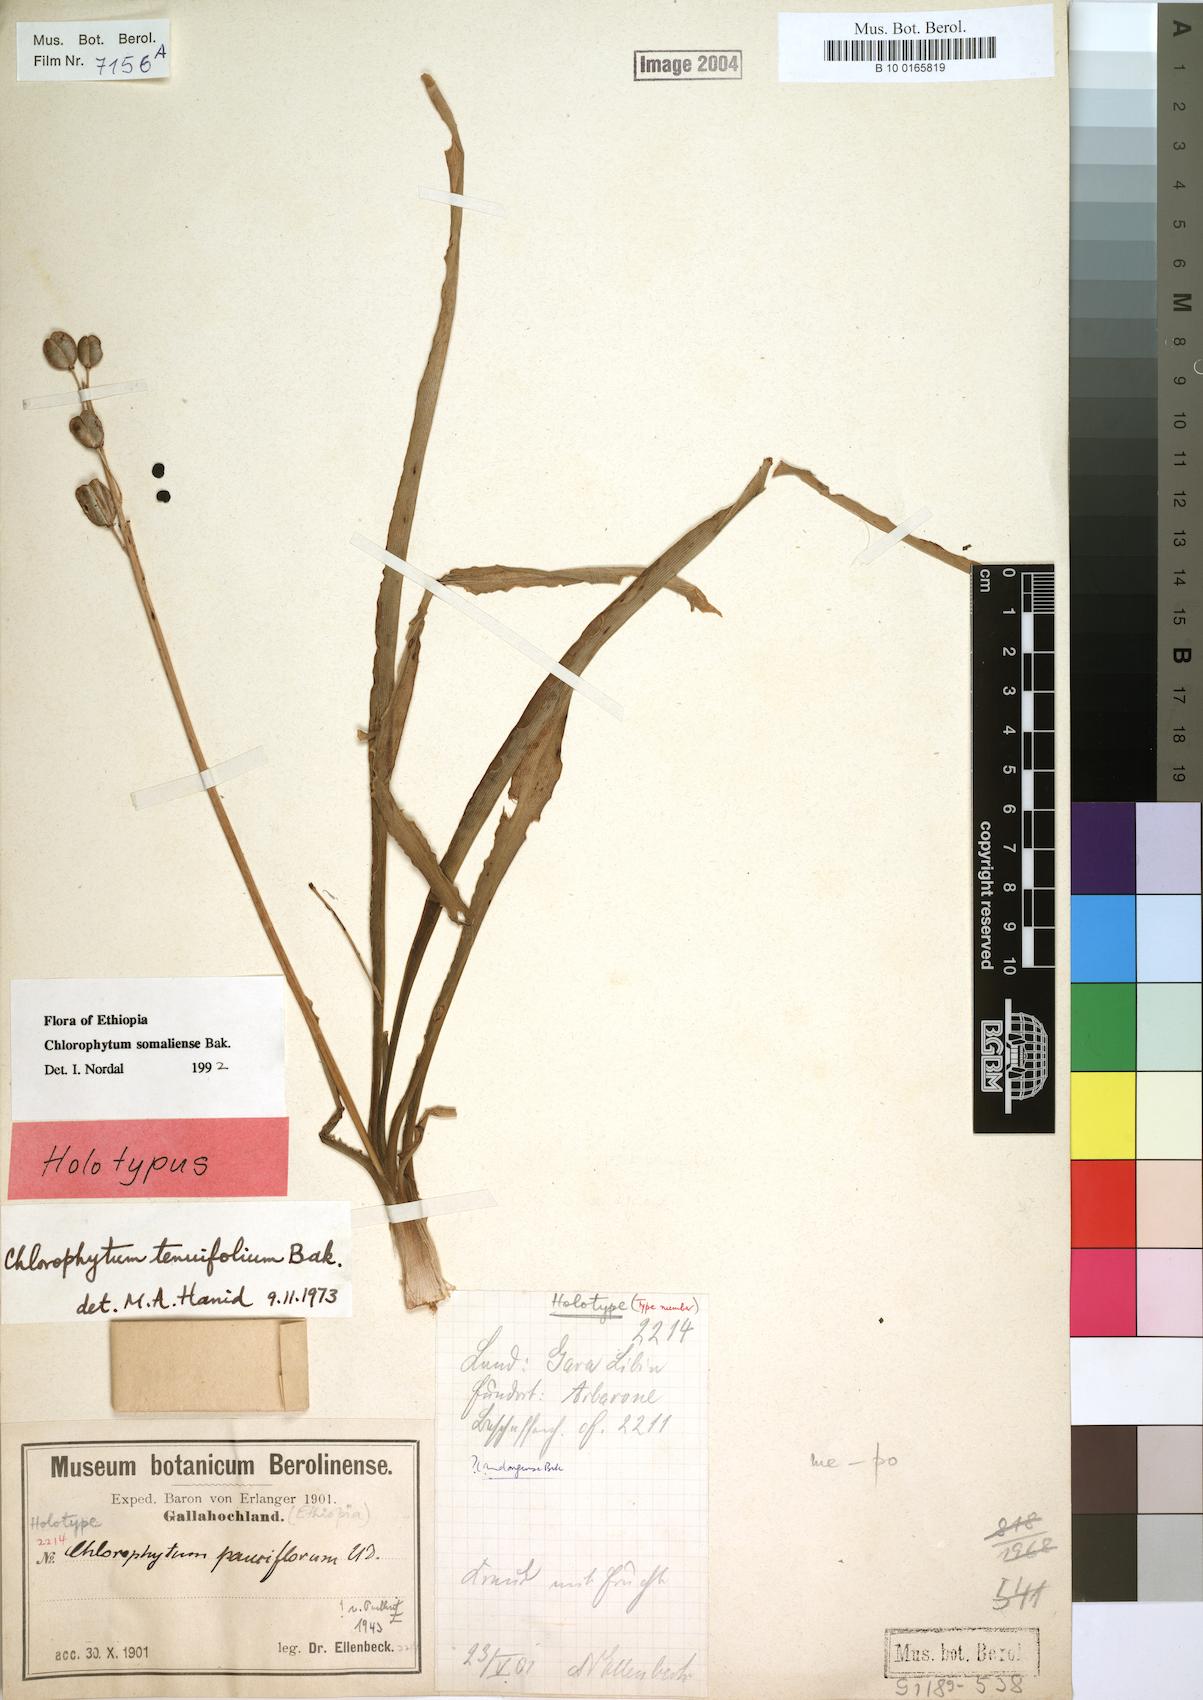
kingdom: Plantae
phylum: Tracheophyta
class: Liliopsida
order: Asparagales
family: Asparagaceae
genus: Chlorophytum
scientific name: Chlorophytum somaliense
